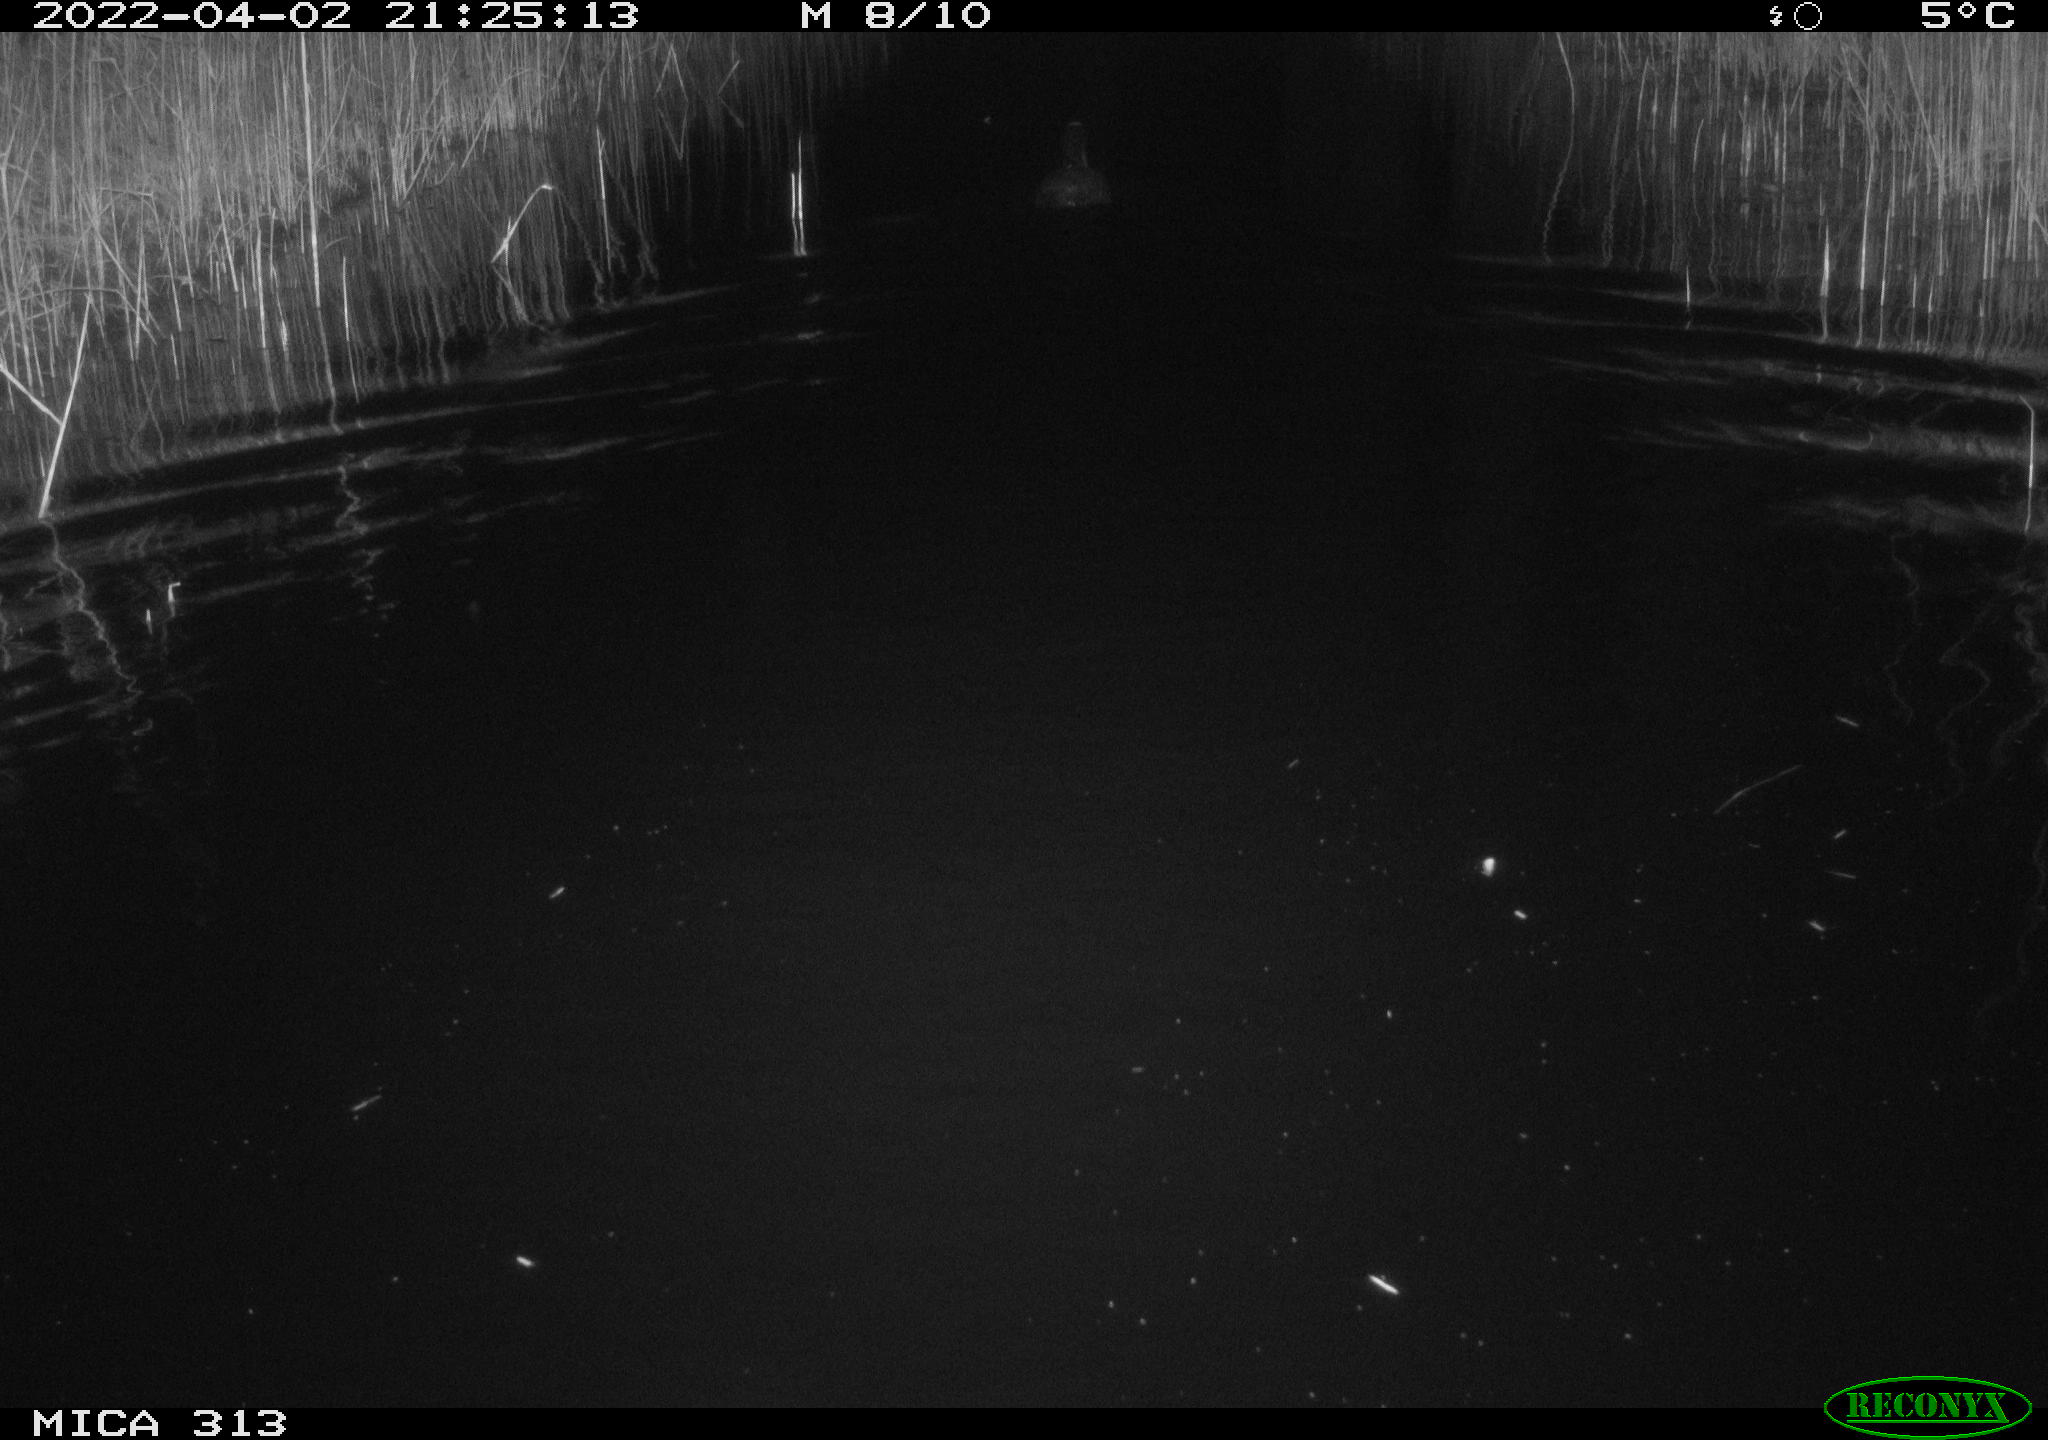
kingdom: Animalia
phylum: Chordata
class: Aves
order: Gruiformes
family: Rallidae
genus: Gallinula
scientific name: Gallinula chloropus
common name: Common moorhen
